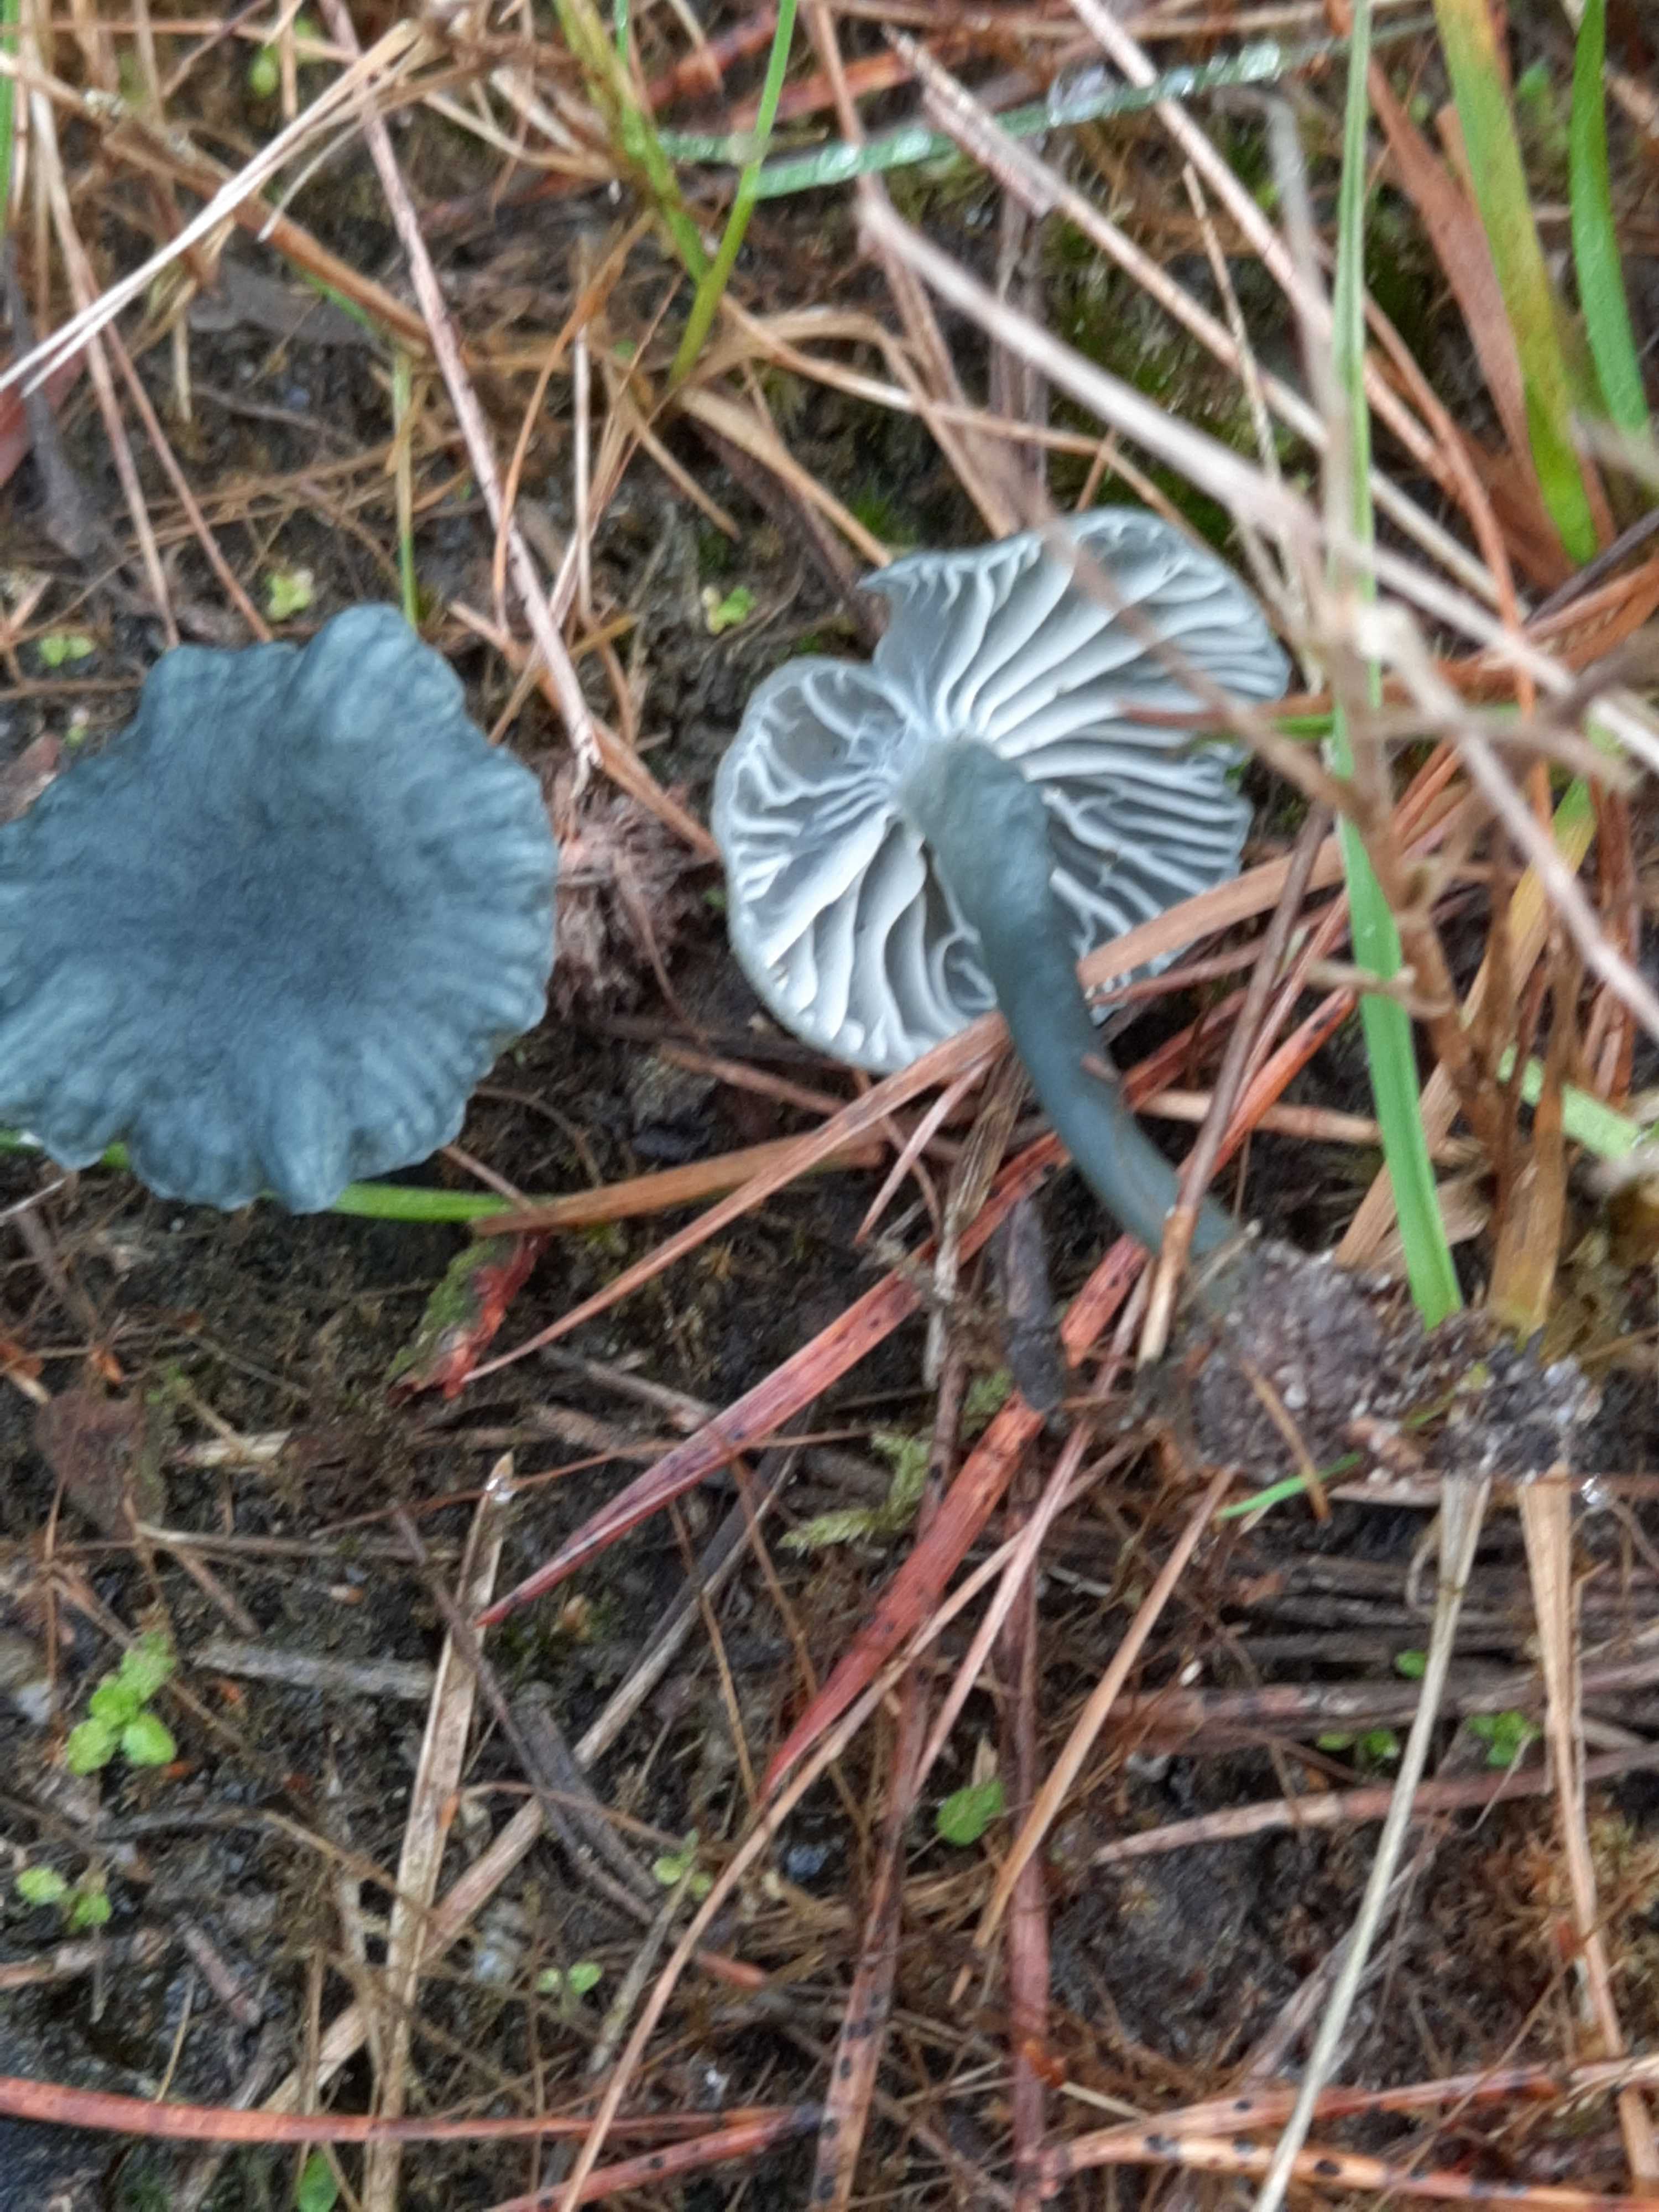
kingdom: Fungi
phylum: Basidiomycota
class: Agaricomycetes
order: Agaricales
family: Hygrophoraceae
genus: Arrhenia
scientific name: Arrhenia chlorocyanea
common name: blågrøn fontænehat
